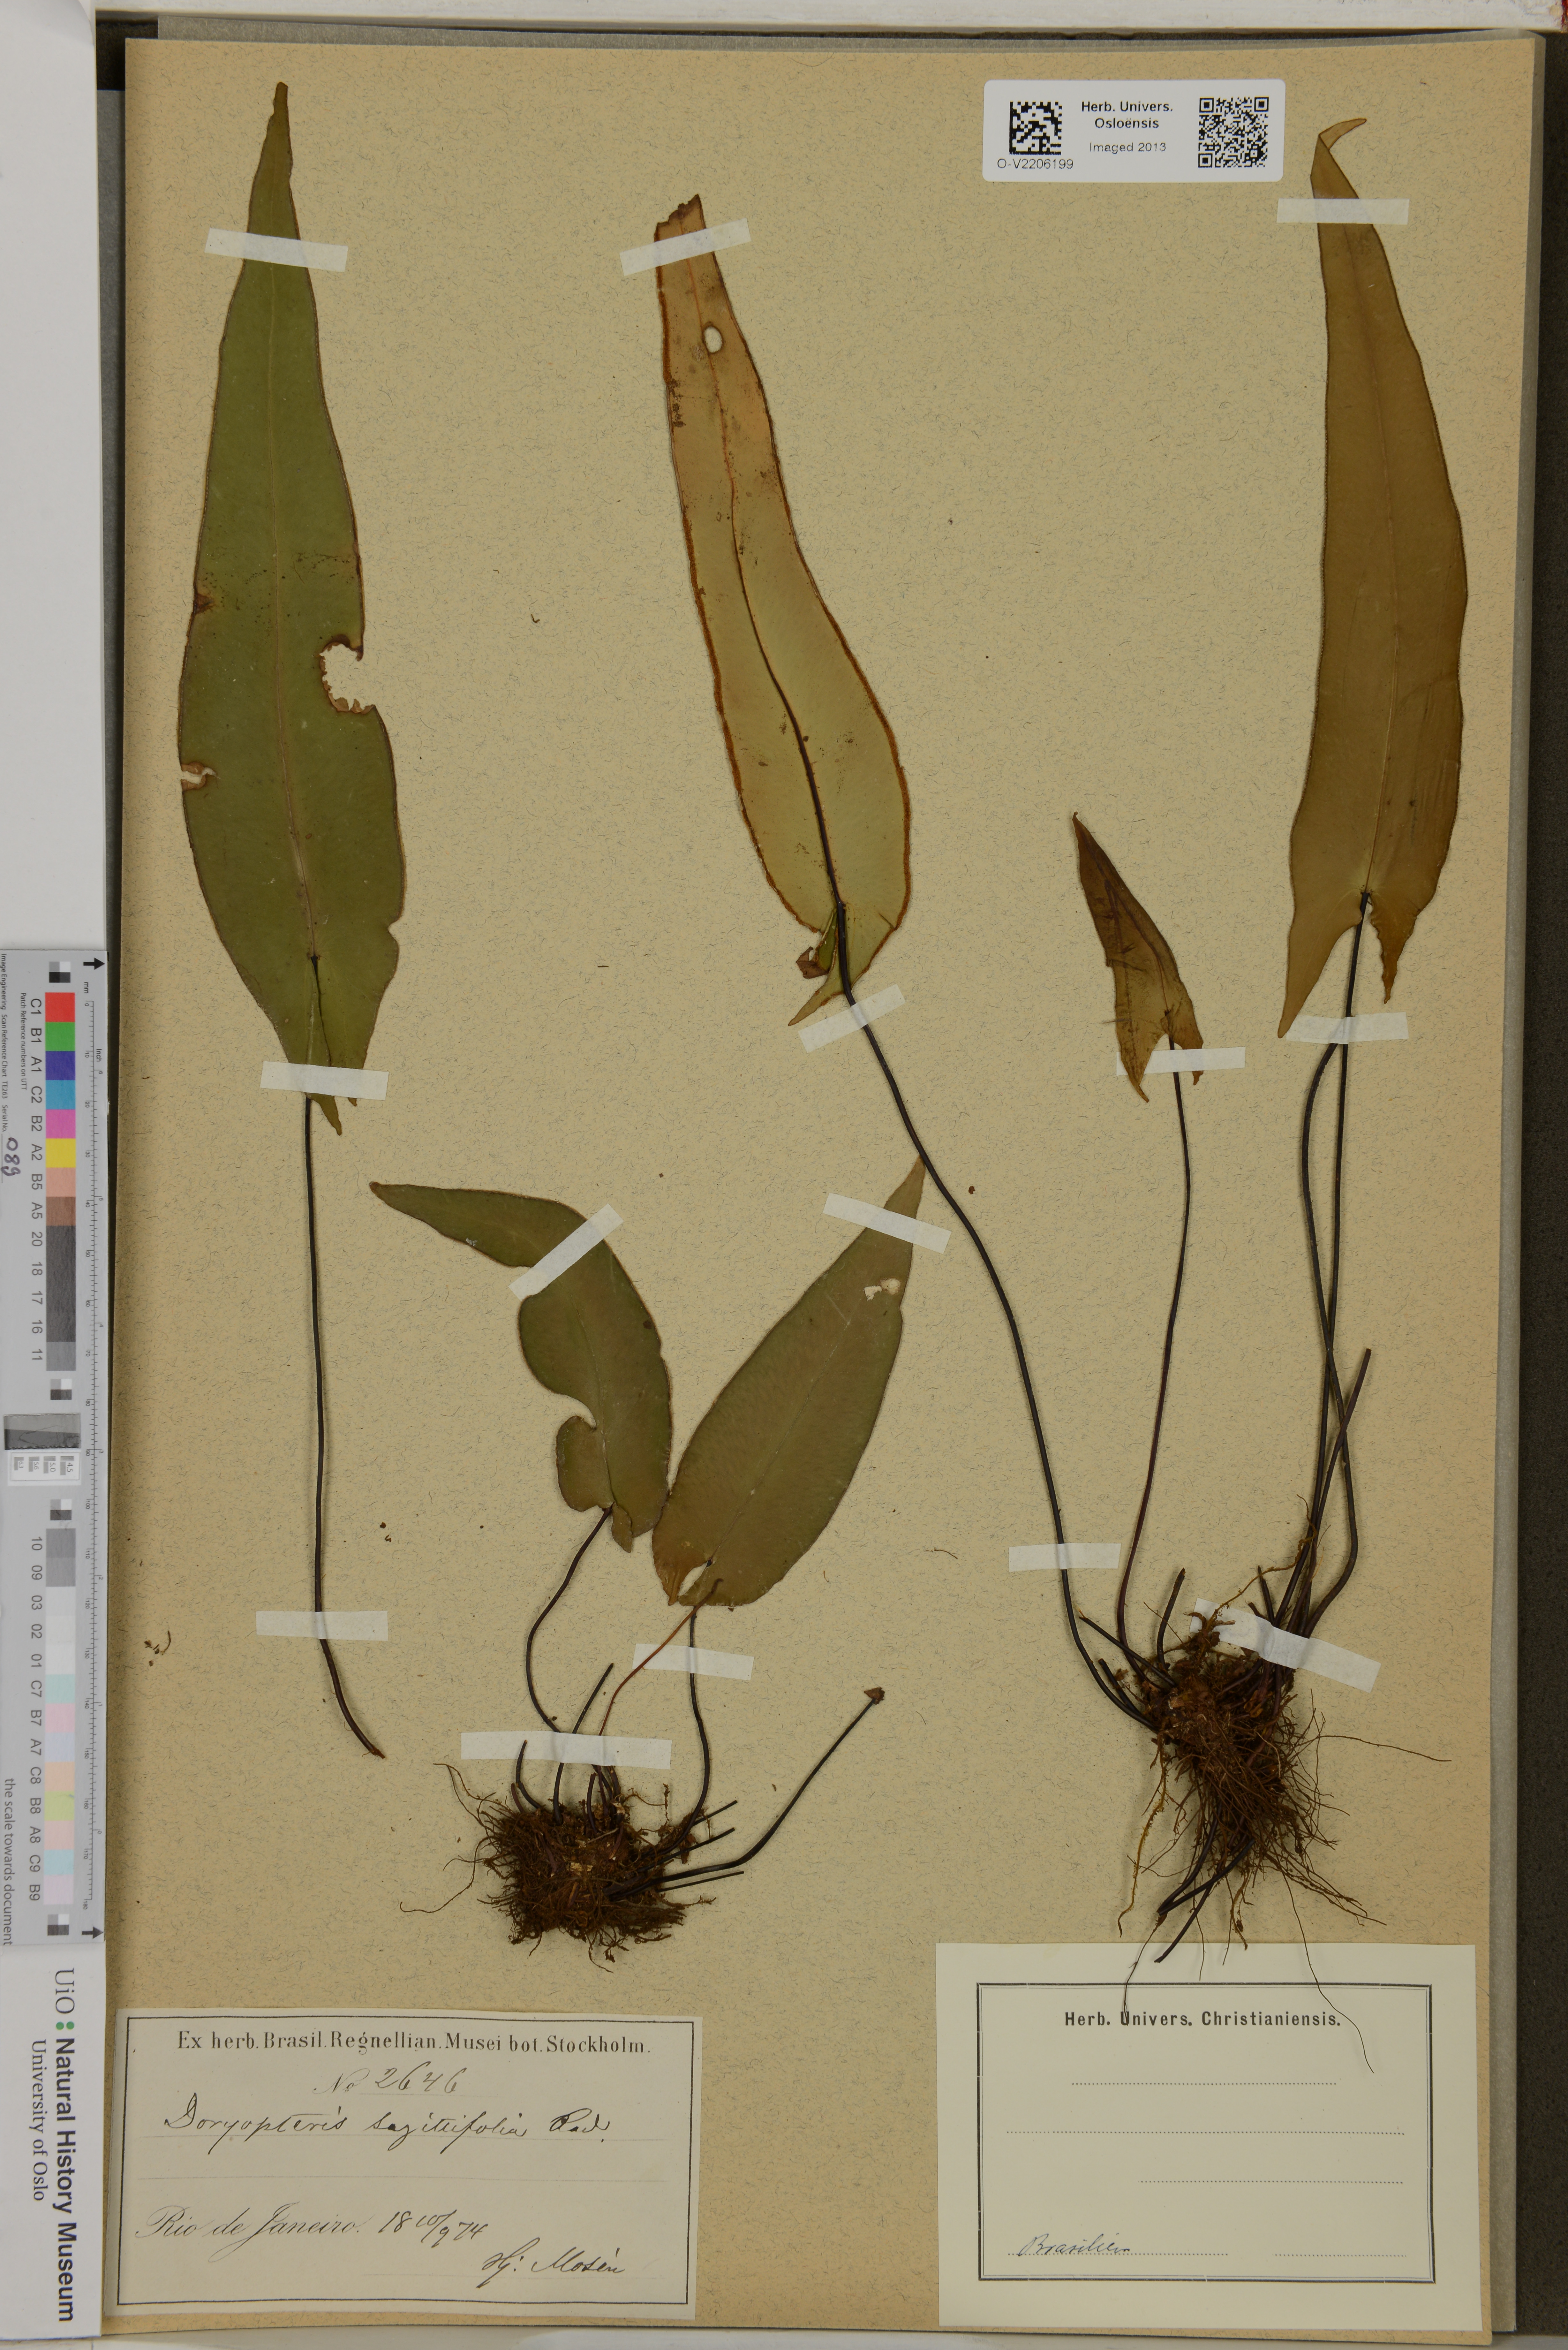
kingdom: Plantae
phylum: Tracheophyta
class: Polypodiopsida
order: Polypodiales
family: Pteridaceae
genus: Doryopteris
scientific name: Doryopteris sagittifolia
